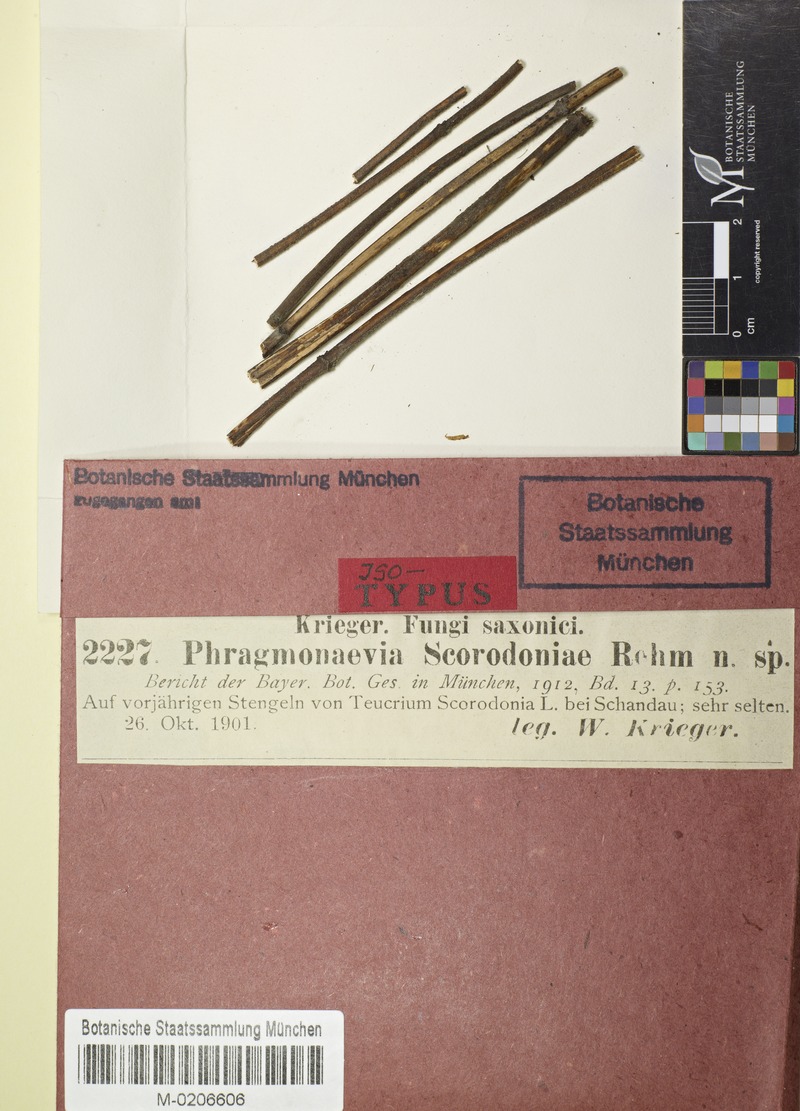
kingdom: Fungi
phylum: Ascomycota
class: Leotiomycetes
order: Helotiales
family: Dermateaceae
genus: Phragmonaevia
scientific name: Phragmonaevia scorodoniae
